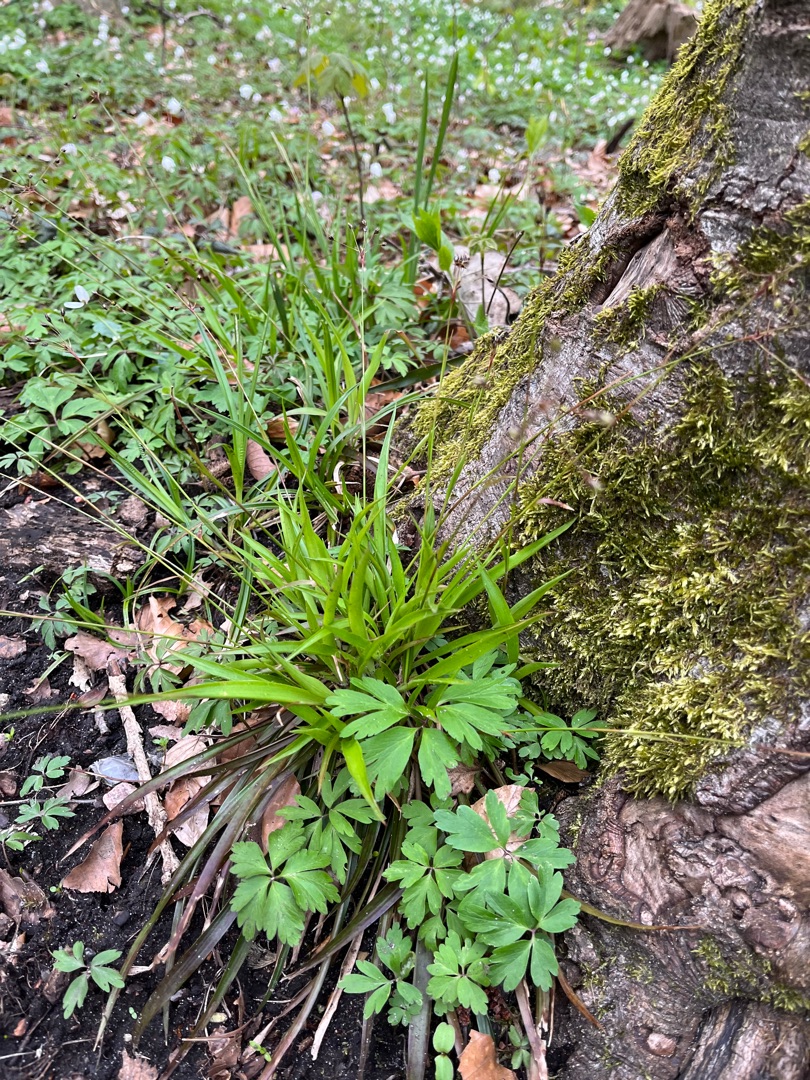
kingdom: Plantae
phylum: Tracheophyta
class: Liliopsida
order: Poales
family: Juncaceae
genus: Luzula
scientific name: Luzula pilosa
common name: Håret frytle
